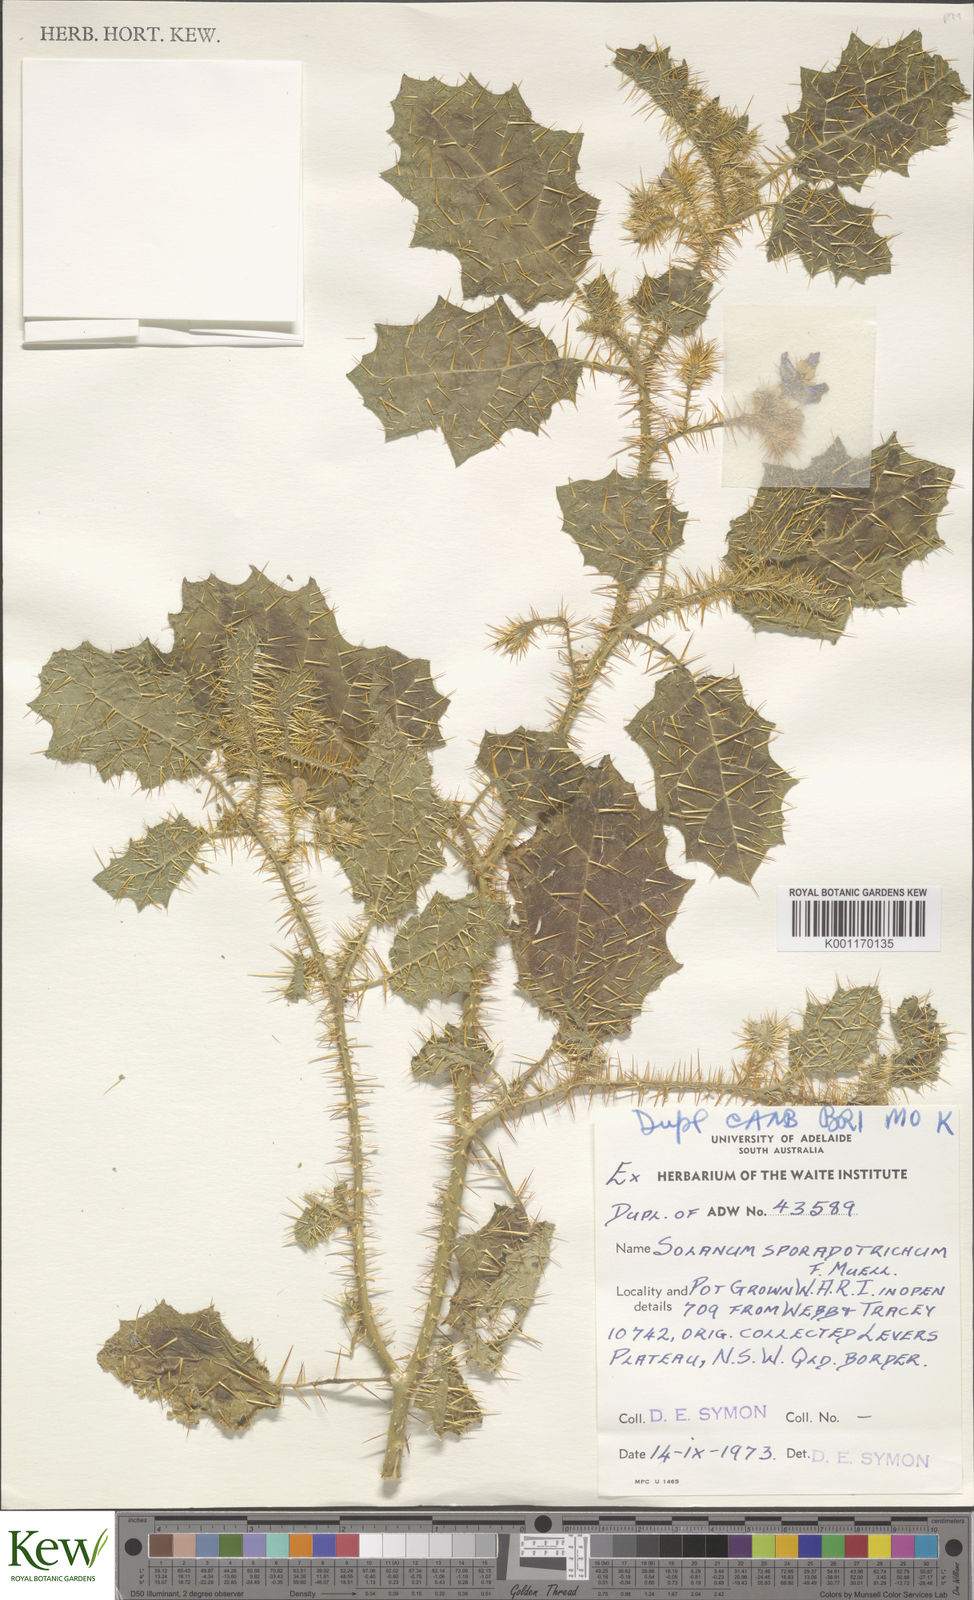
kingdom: Plantae
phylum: Tracheophyta
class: Magnoliopsida
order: Solanales
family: Solanaceae
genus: Solanum
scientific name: Solanum sporadotrichum
